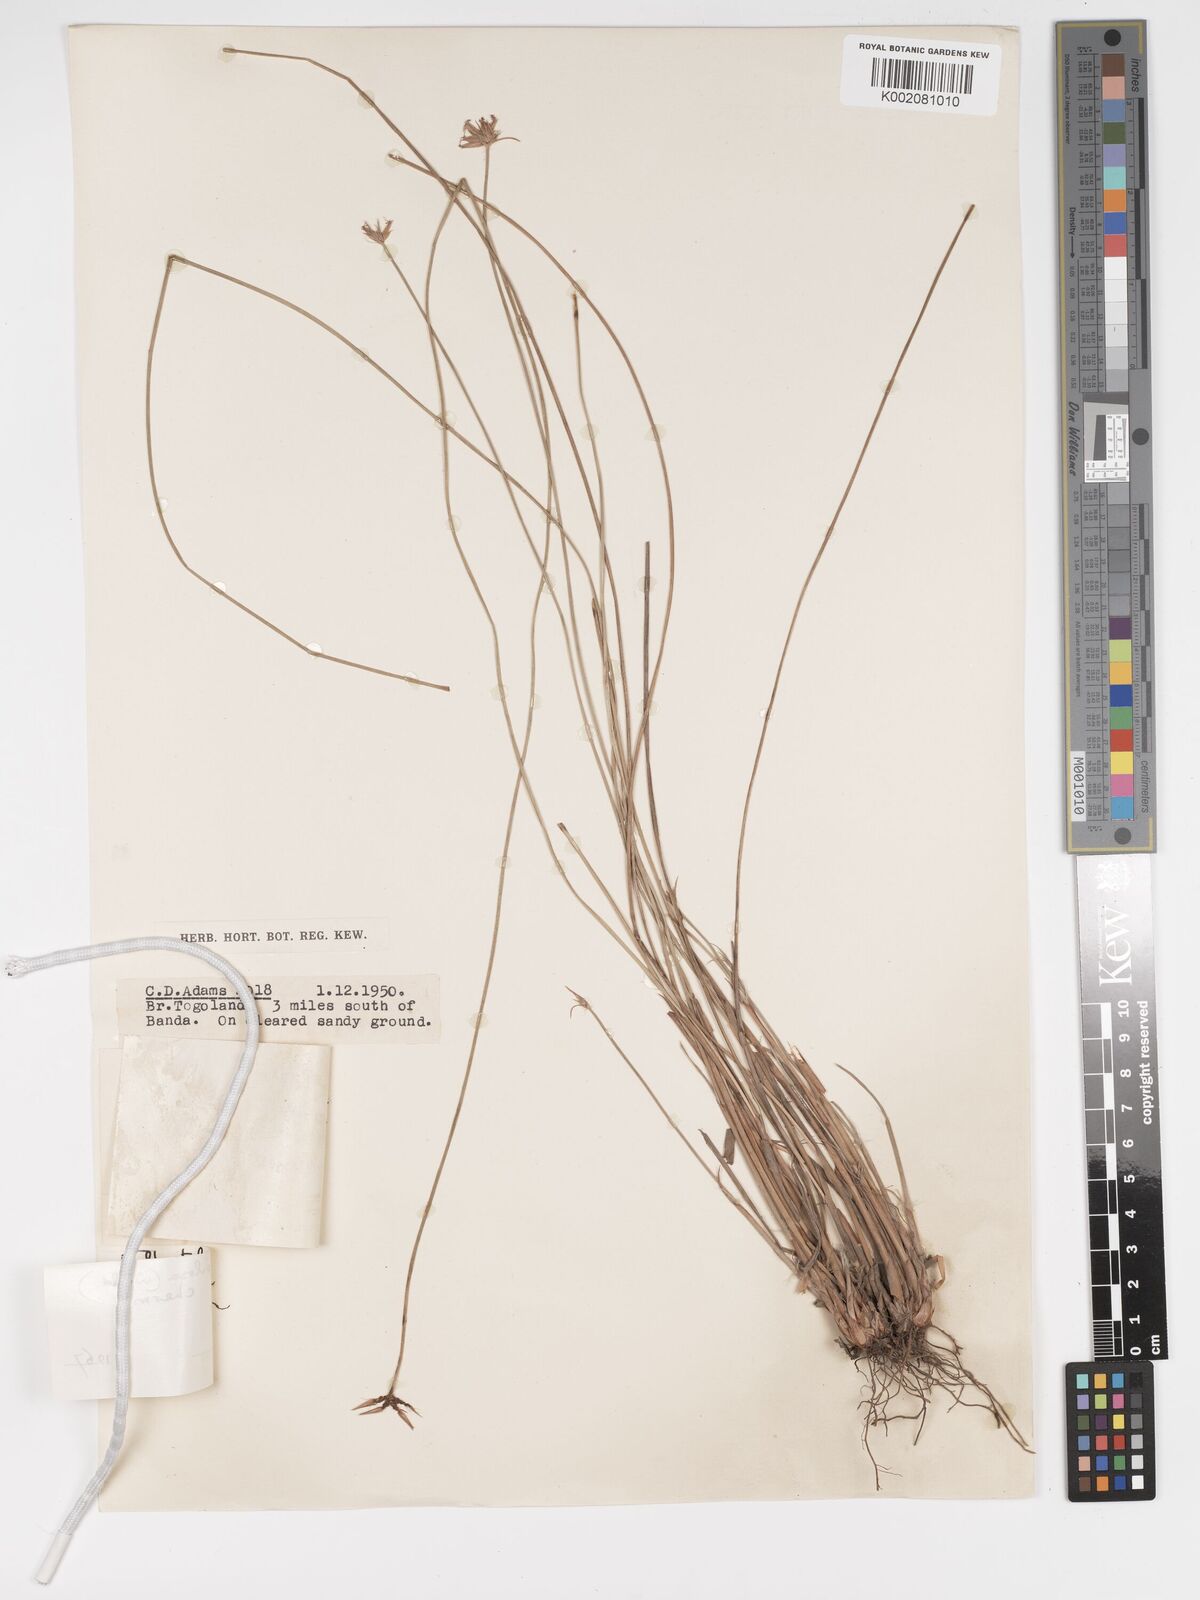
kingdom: Plantae
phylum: Tracheophyta
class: Liliopsida
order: Poales
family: Cyperaceae
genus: Bulbostylis
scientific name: Bulbostylis pilosa
